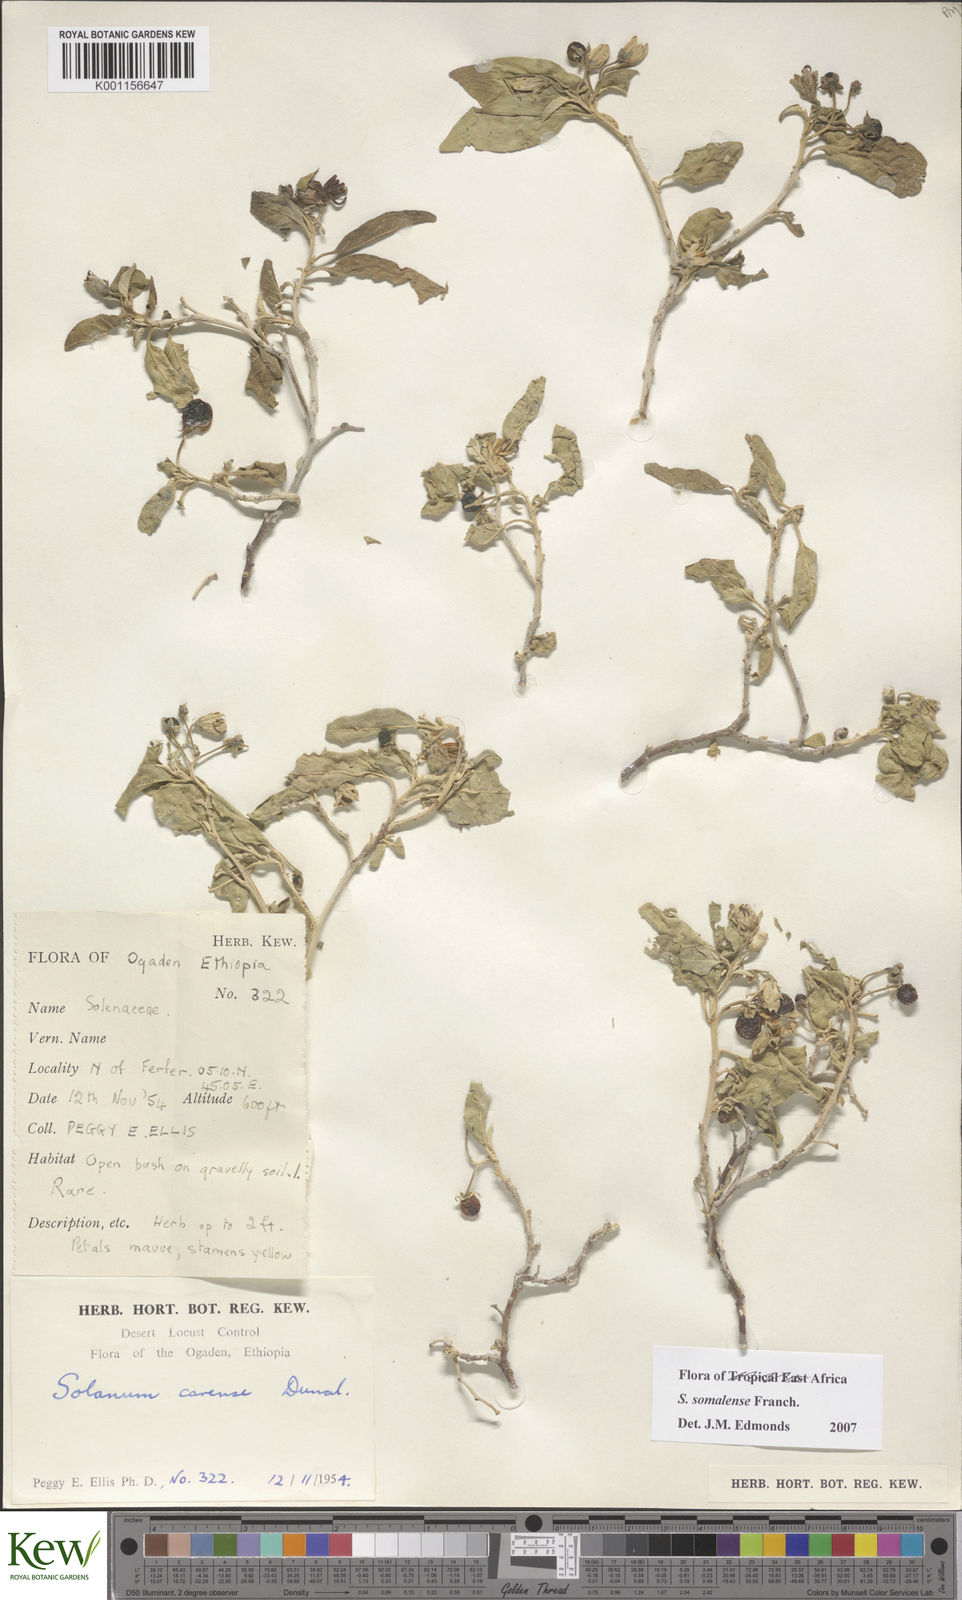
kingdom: Plantae
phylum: Tracheophyta
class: Magnoliopsida
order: Solanales
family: Solanaceae
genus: Solanum
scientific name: Solanum somalense
